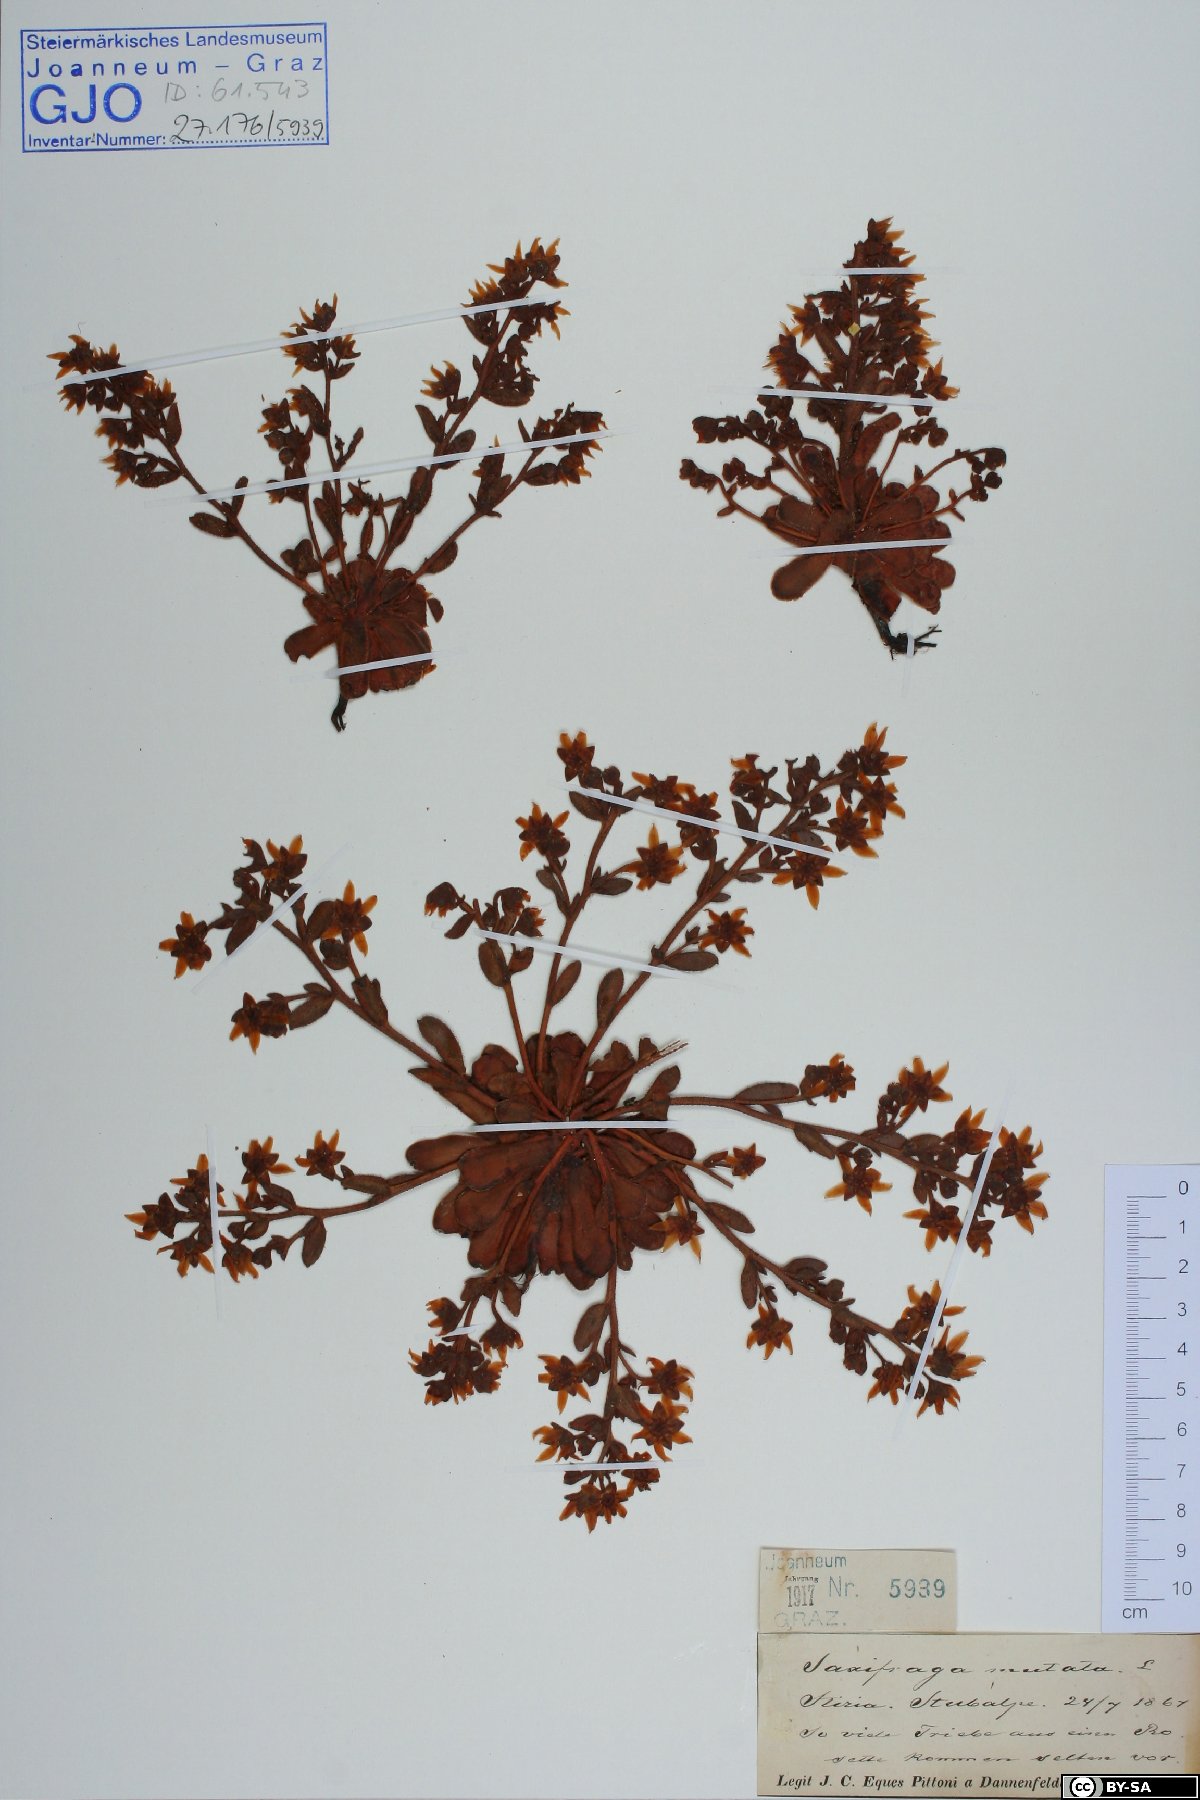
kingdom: Plantae
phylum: Tracheophyta
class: Magnoliopsida
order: Saxifragales
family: Saxifragaceae
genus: Saxifraga
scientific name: Saxifraga mutata
